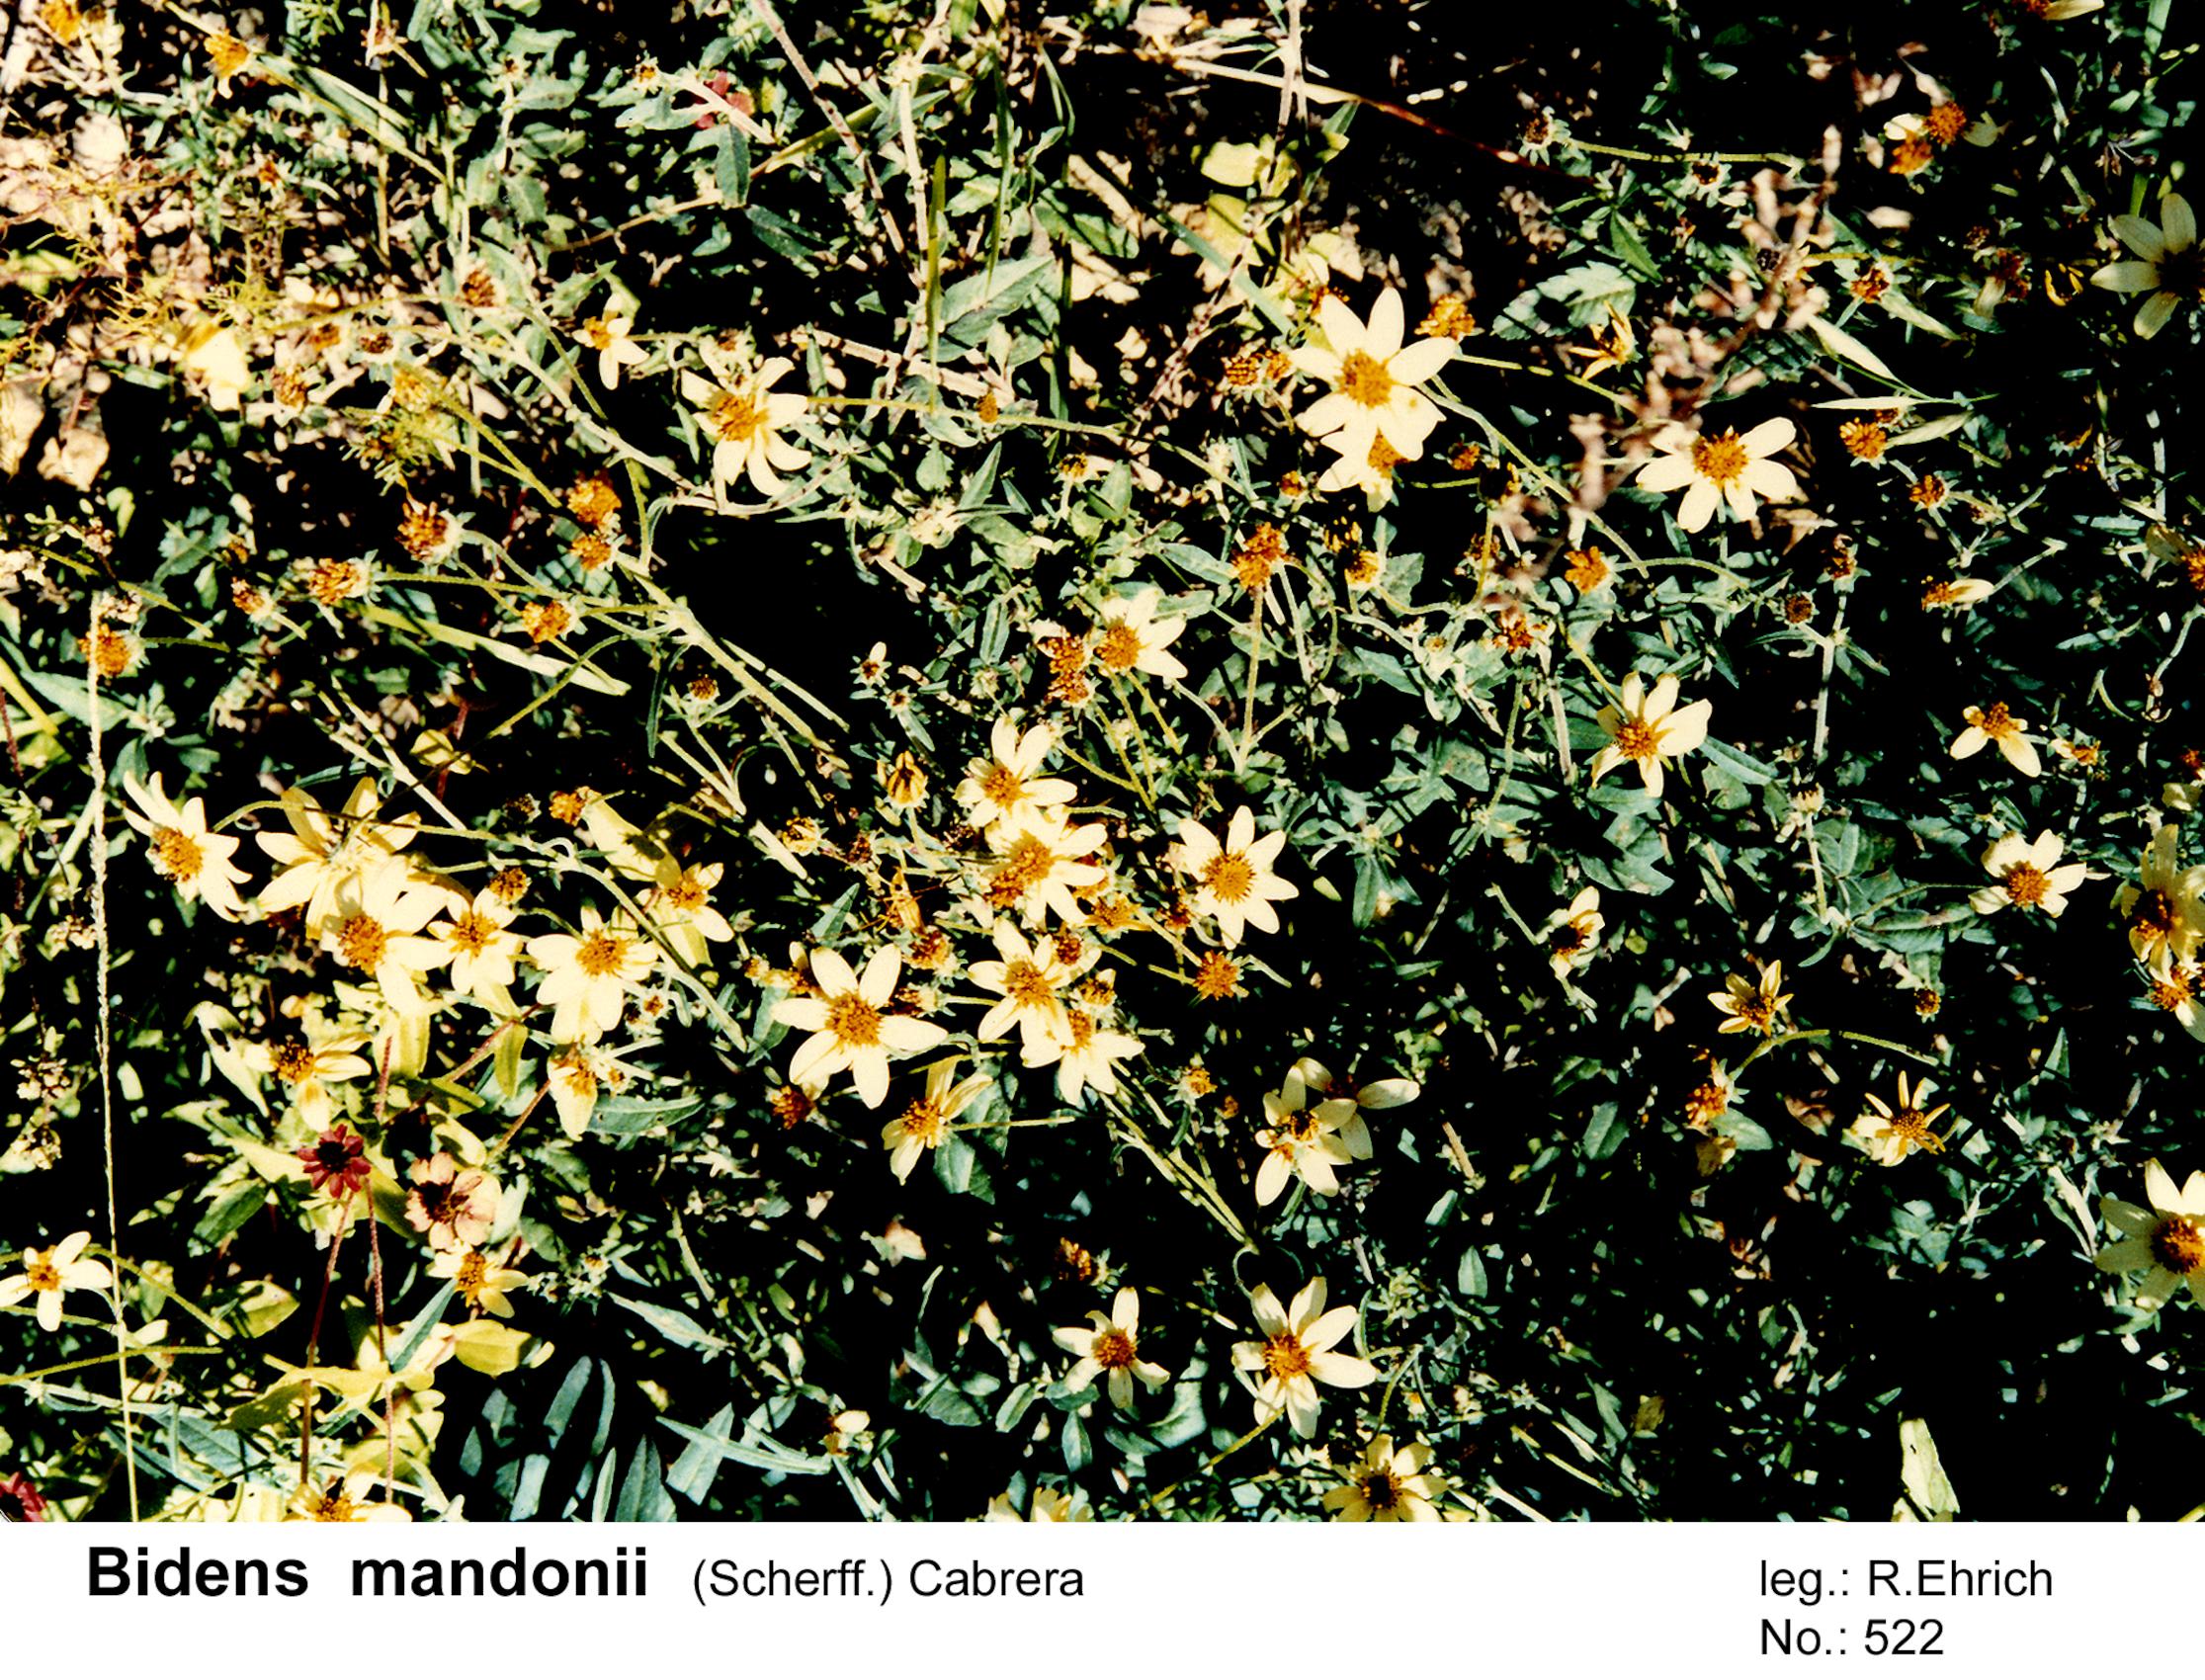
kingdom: Plantae
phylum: Tracheophyta
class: Magnoliopsida
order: Asterales
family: Asteraceae
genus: Bidens
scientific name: Bidens mandonii
